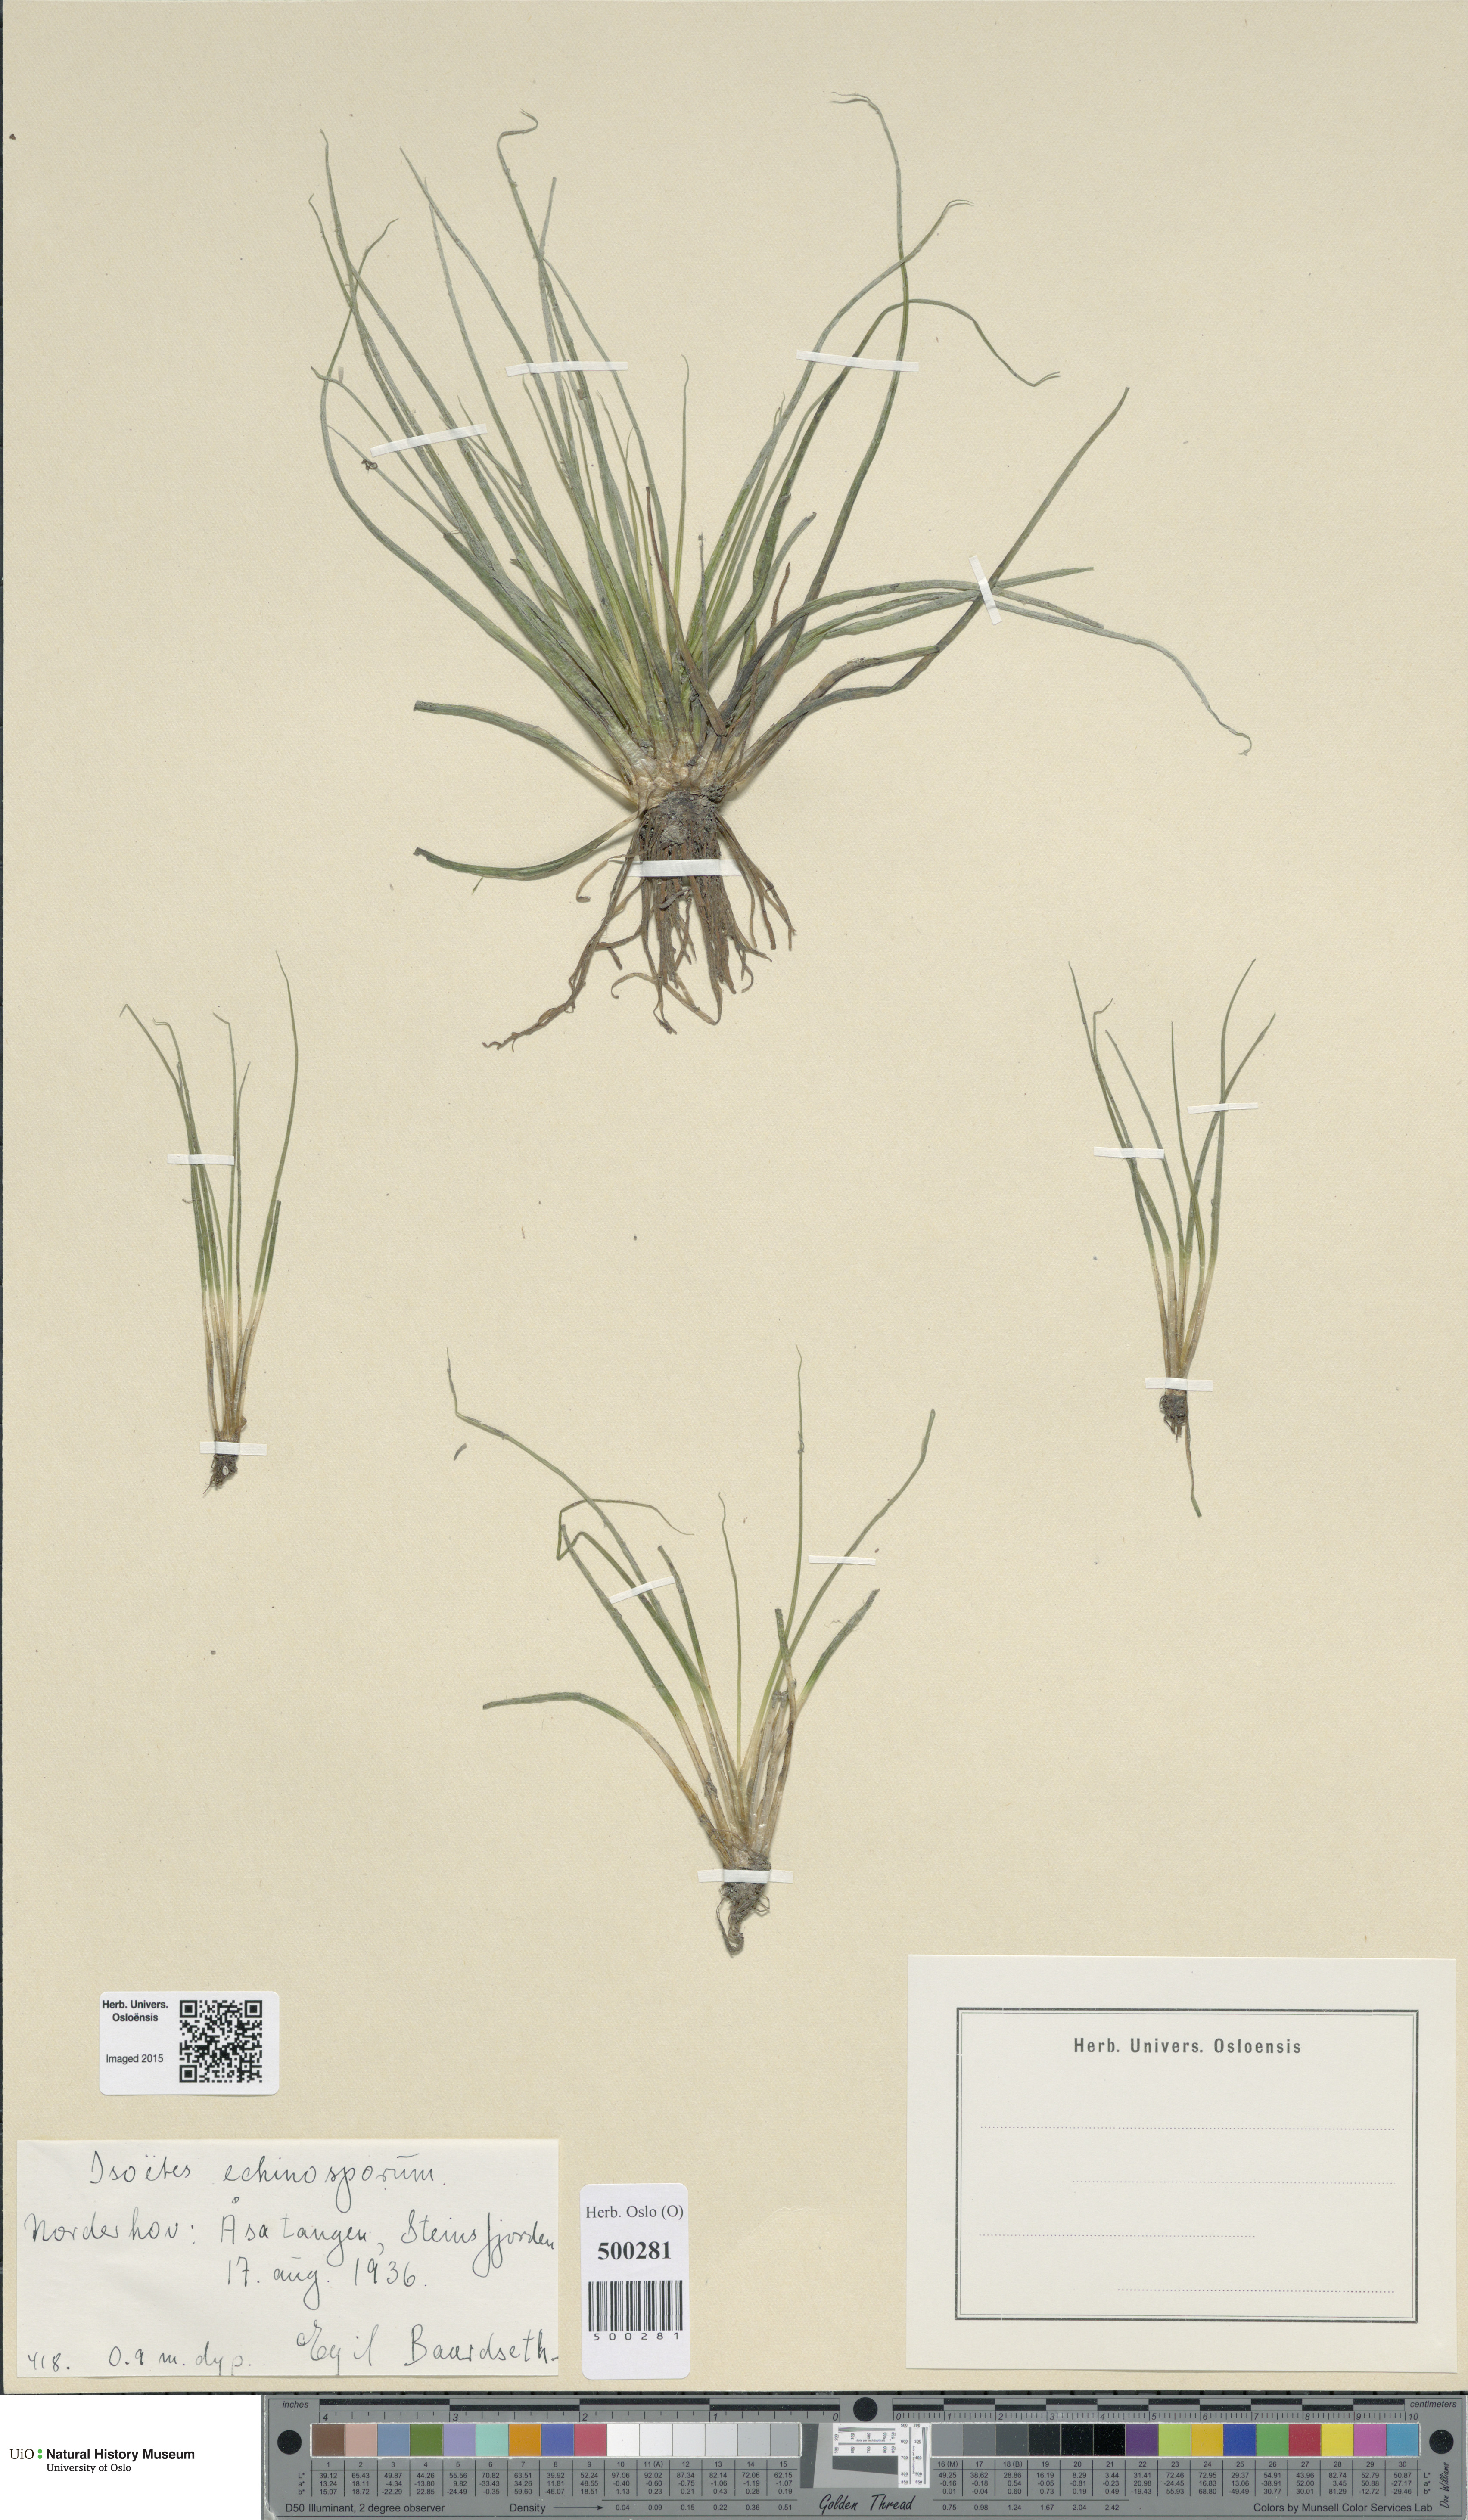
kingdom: Plantae
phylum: Tracheophyta
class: Lycopodiopsida
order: Isoetales
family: Isoetaceae
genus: Isoetes
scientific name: Isoetes echinospora
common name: Spring quillwort
